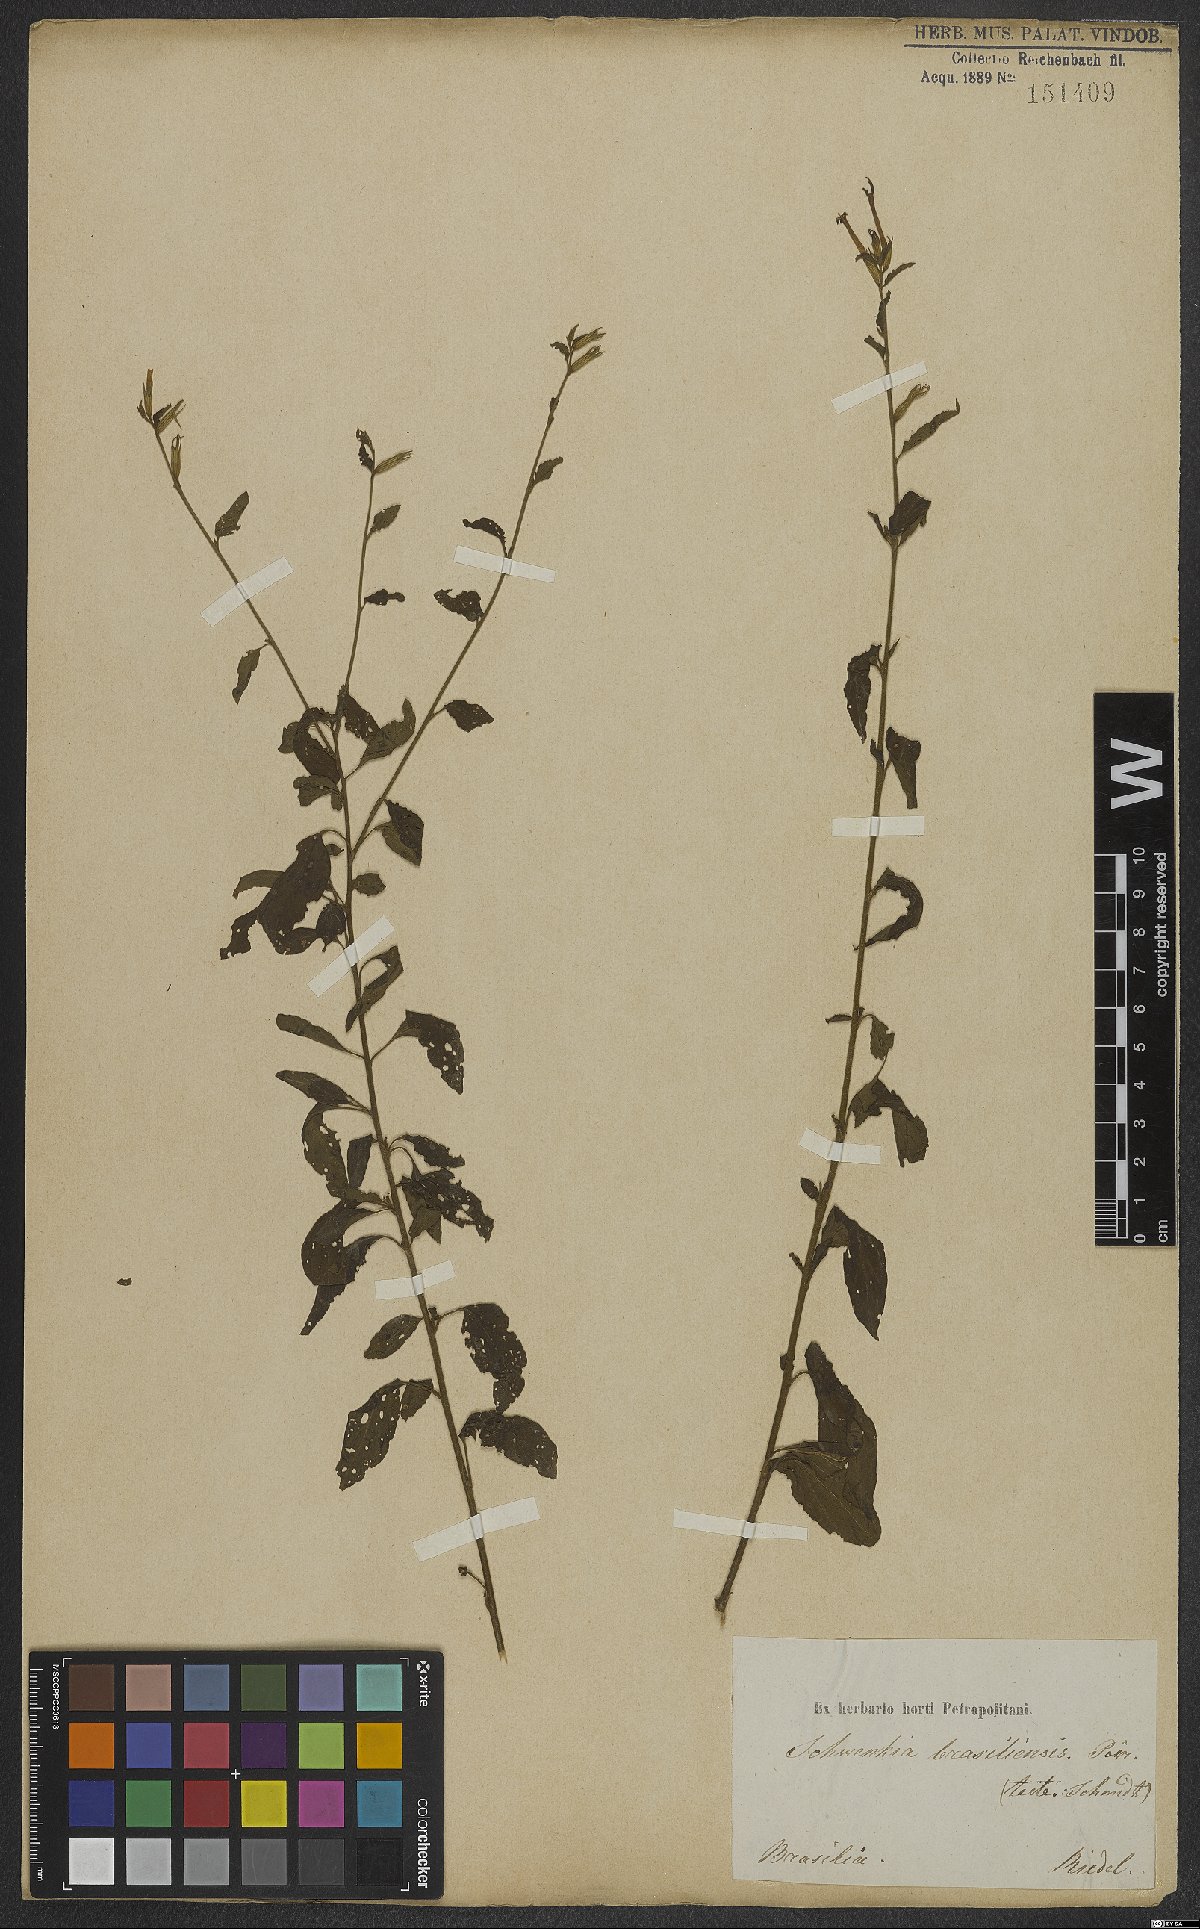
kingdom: Plantae
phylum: Tracheophyta
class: Magnoliopsida
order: Solanales
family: Solanaceae
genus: Schwenckia
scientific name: Schwenckia lateriflora
